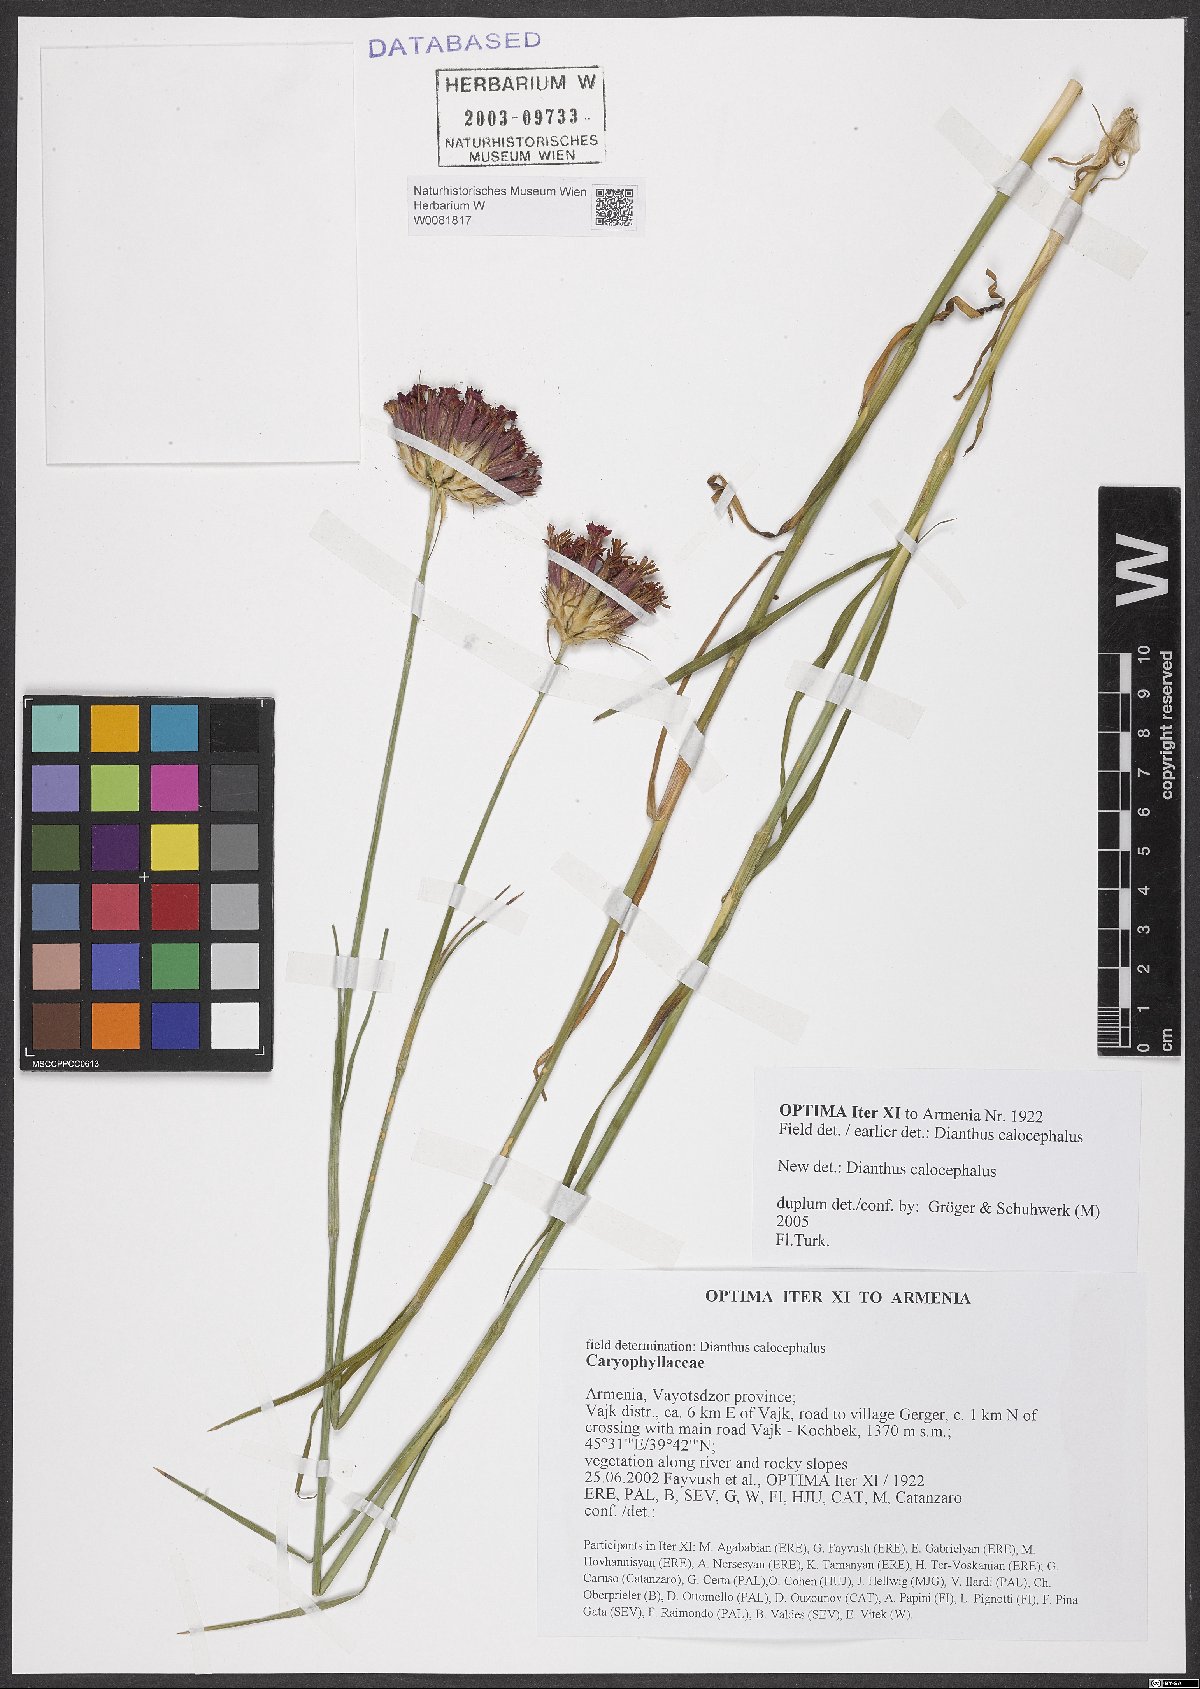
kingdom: Plantae
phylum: Tracheophyta
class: Magnoliopsida
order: Caryophyllales
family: Caryophyllaceae
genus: Dianthus
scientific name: Dianthus cruentus
